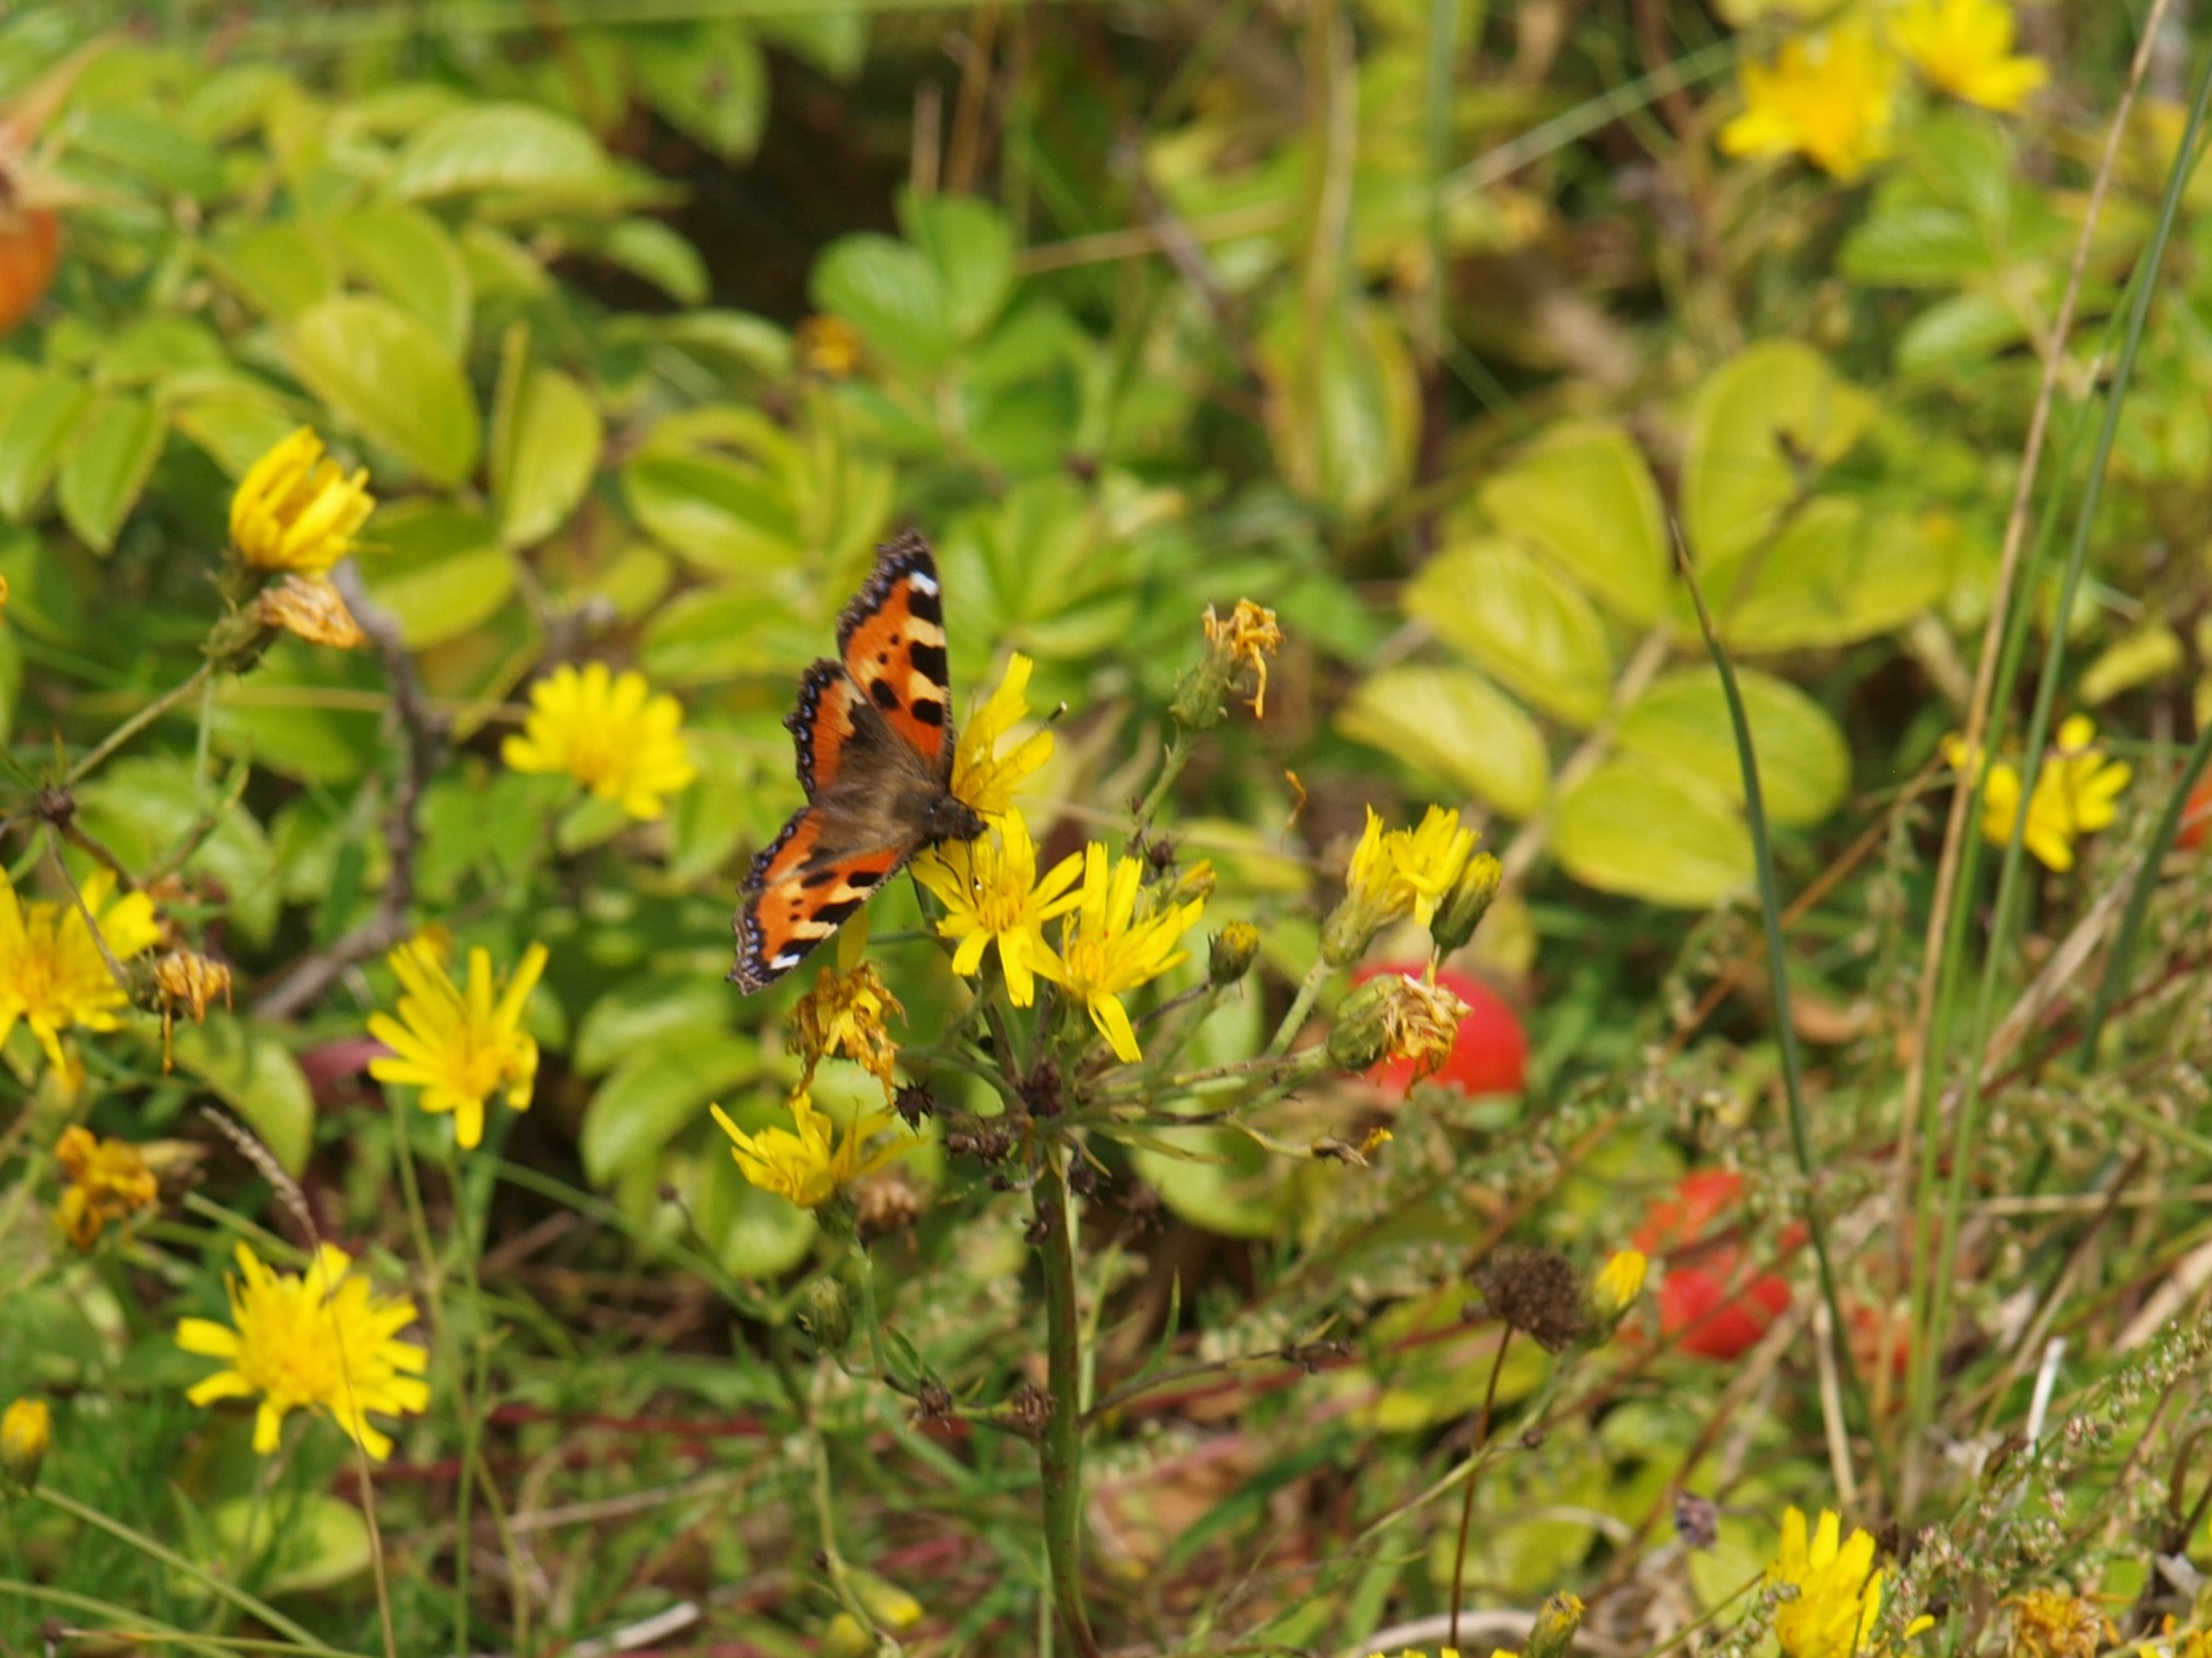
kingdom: Animalia
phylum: Arthropoda
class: Insecta
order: Lepidoptera
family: Nymphalidae
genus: Aglais
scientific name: Aglais urticae
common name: Nældens takvinge
